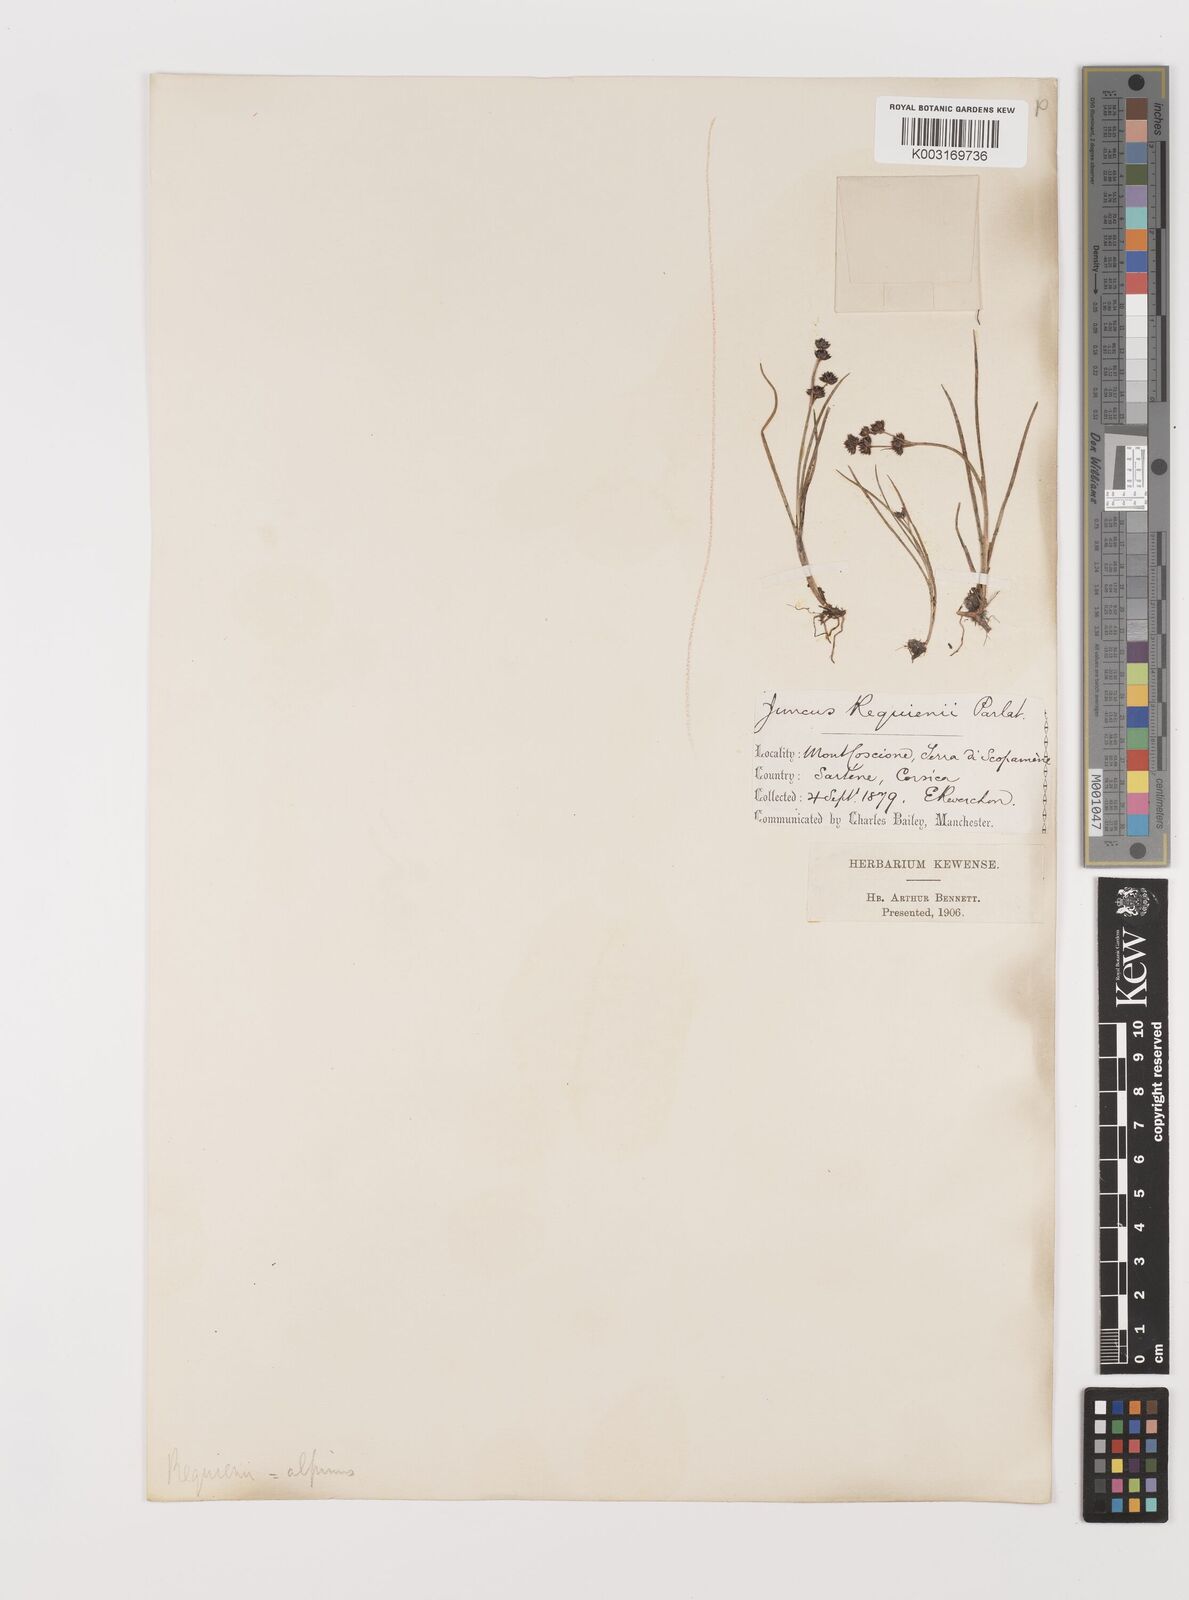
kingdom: Plantae
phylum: Tracheophyta
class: Liliopsida
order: Poales
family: Juncaceae
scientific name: Juncaceae
